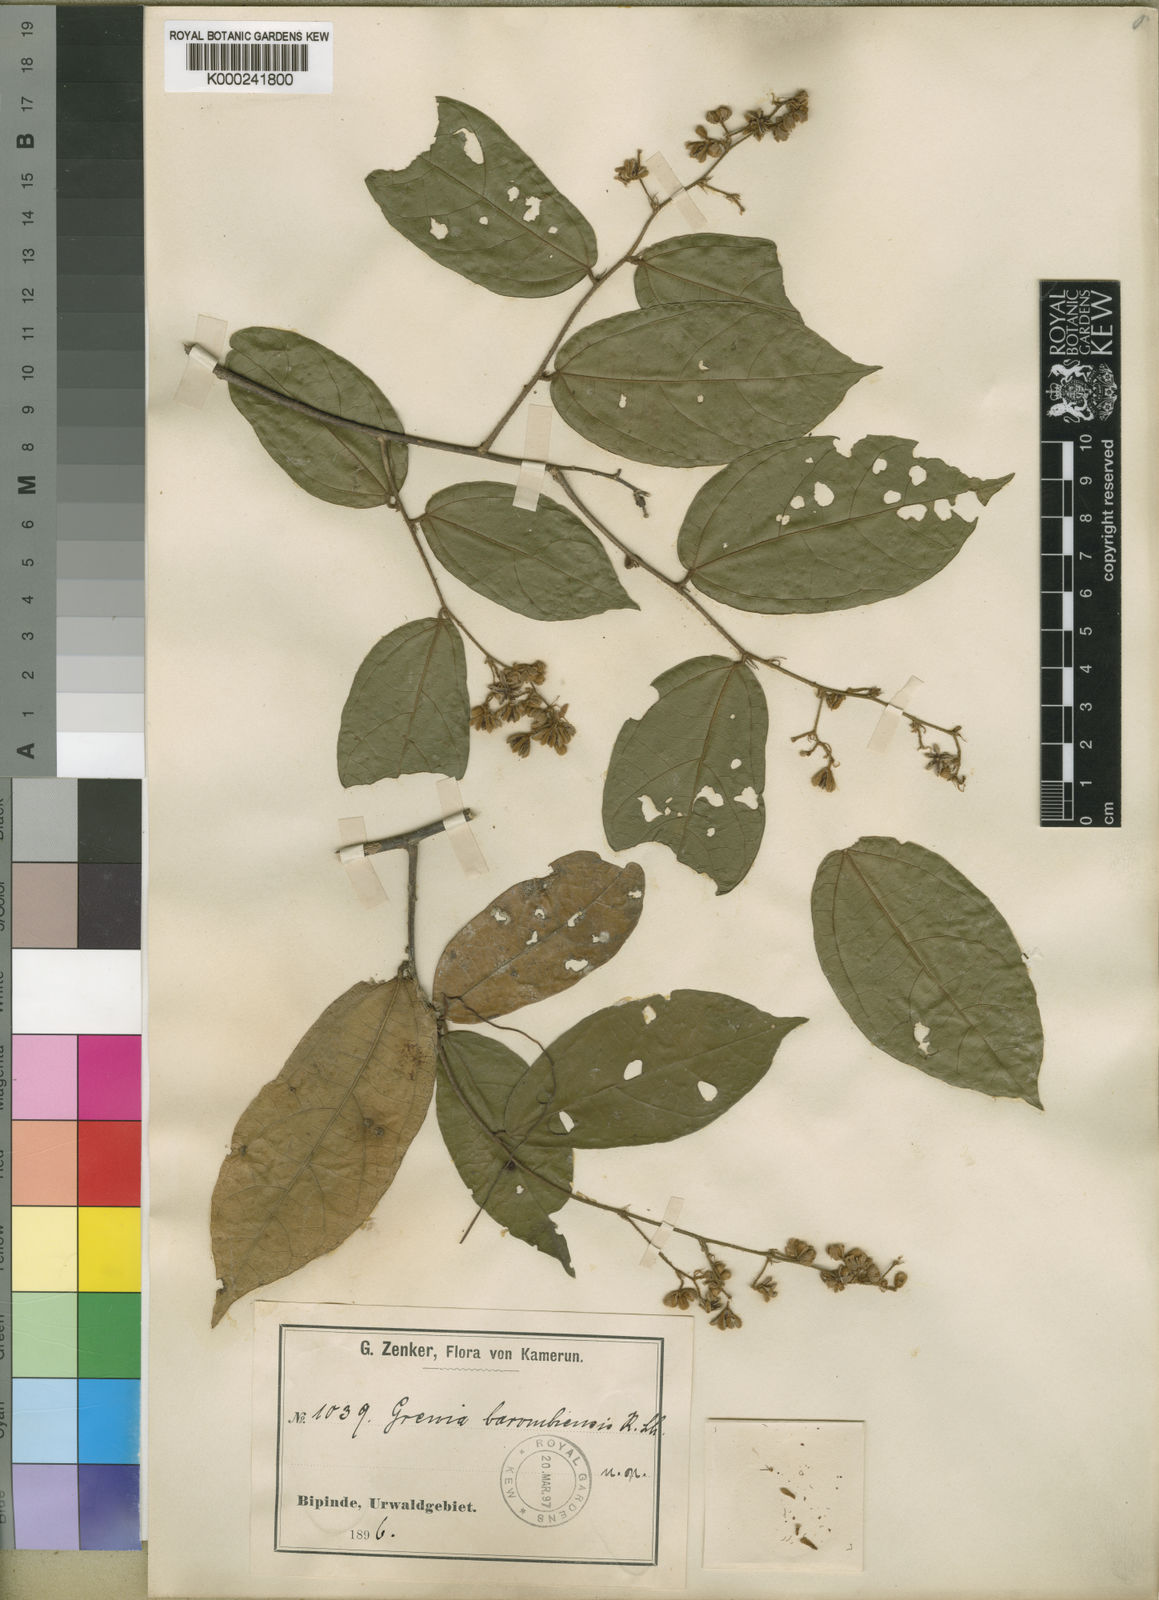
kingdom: Plantae
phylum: Tracheophyta
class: Magnoliopsida
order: Malvales
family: Malvaceae
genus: Microcos
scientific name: Microcos barombiensis
